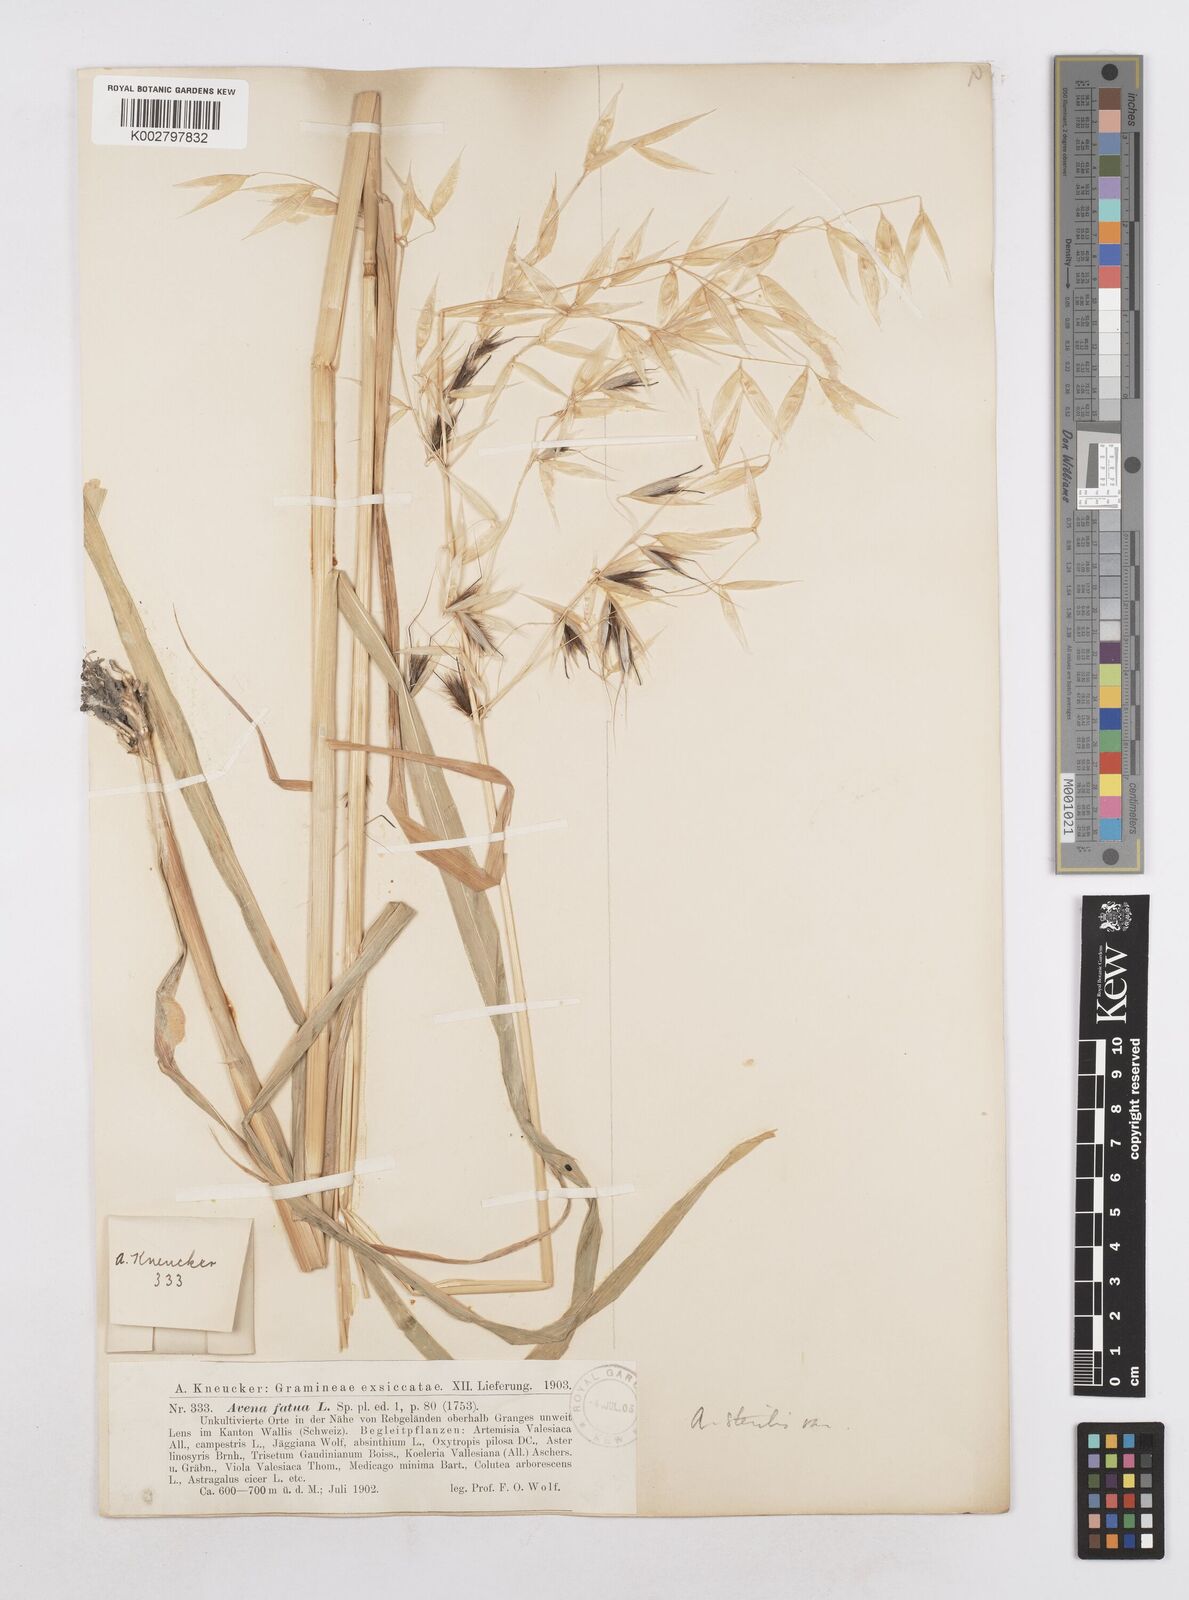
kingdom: Plantae
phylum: Tracheophyta
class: Liliopsida
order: Poales
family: Poaceae
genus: Avena
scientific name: Avena sterilis
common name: Animated oat
